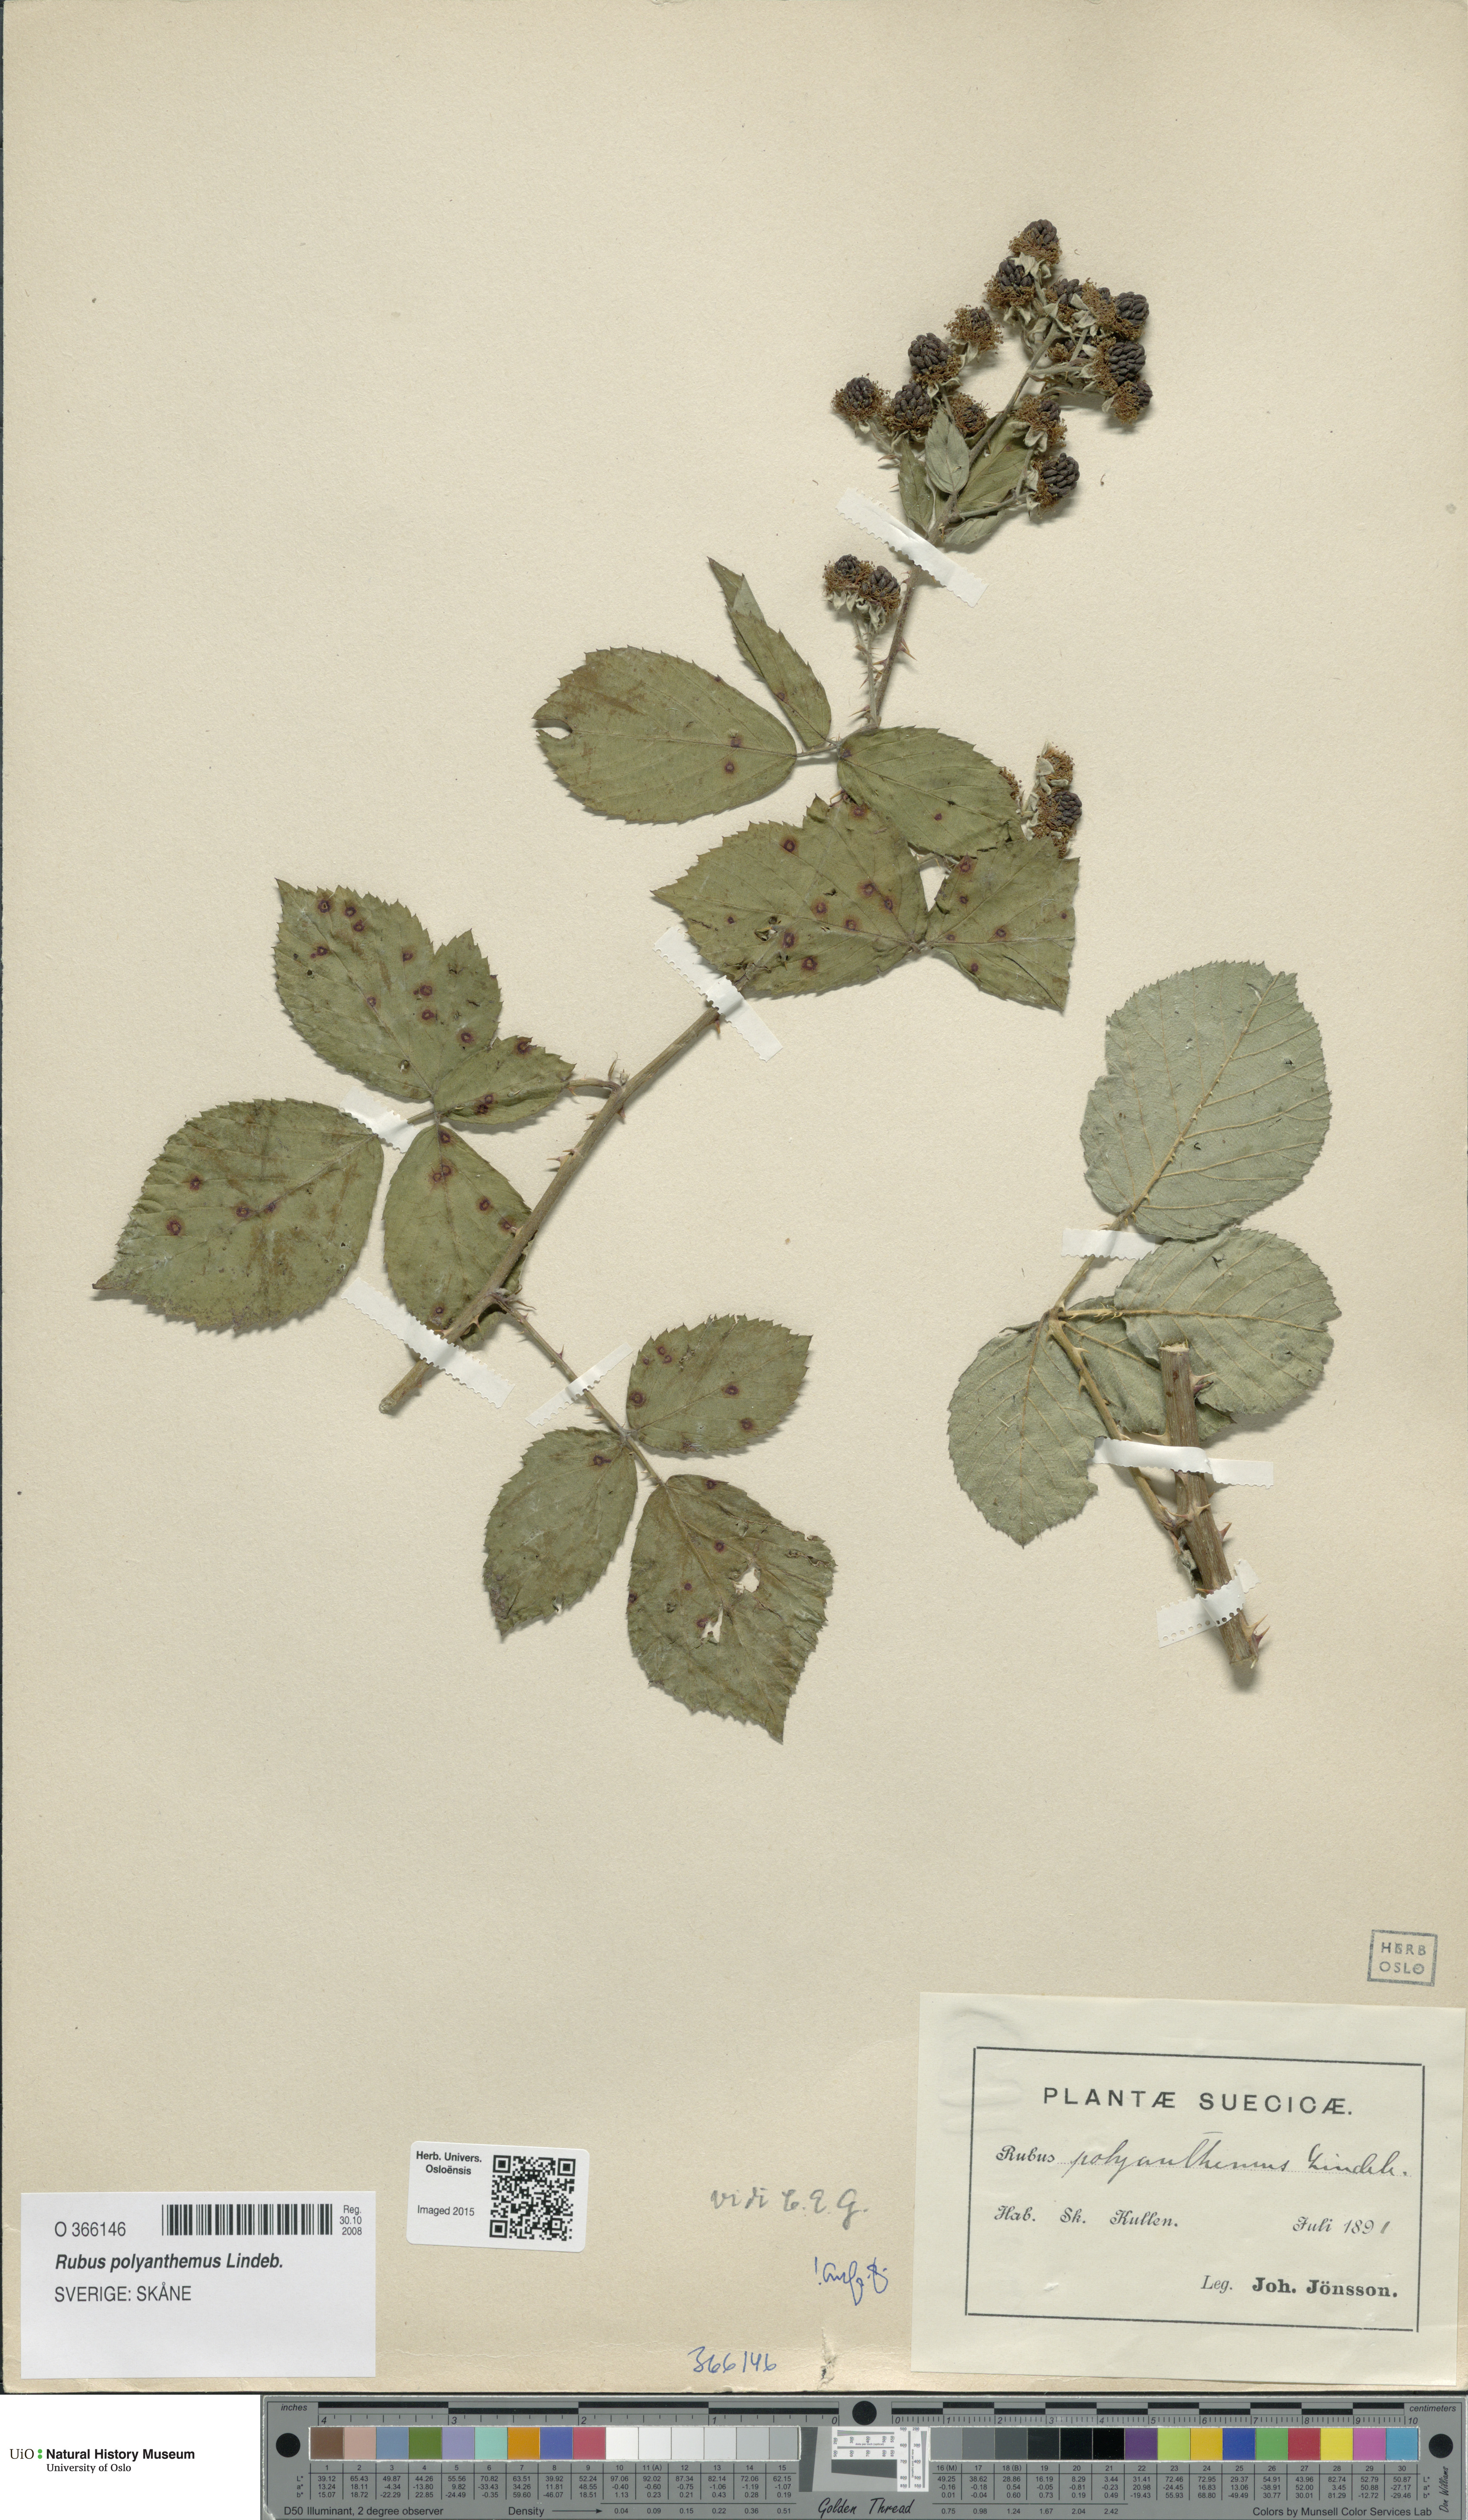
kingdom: Plantae
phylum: Tracheophyta
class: Magnoliopsida
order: Rosales
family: Rosaceae
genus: Rubus
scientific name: Rubus polyanthemus
